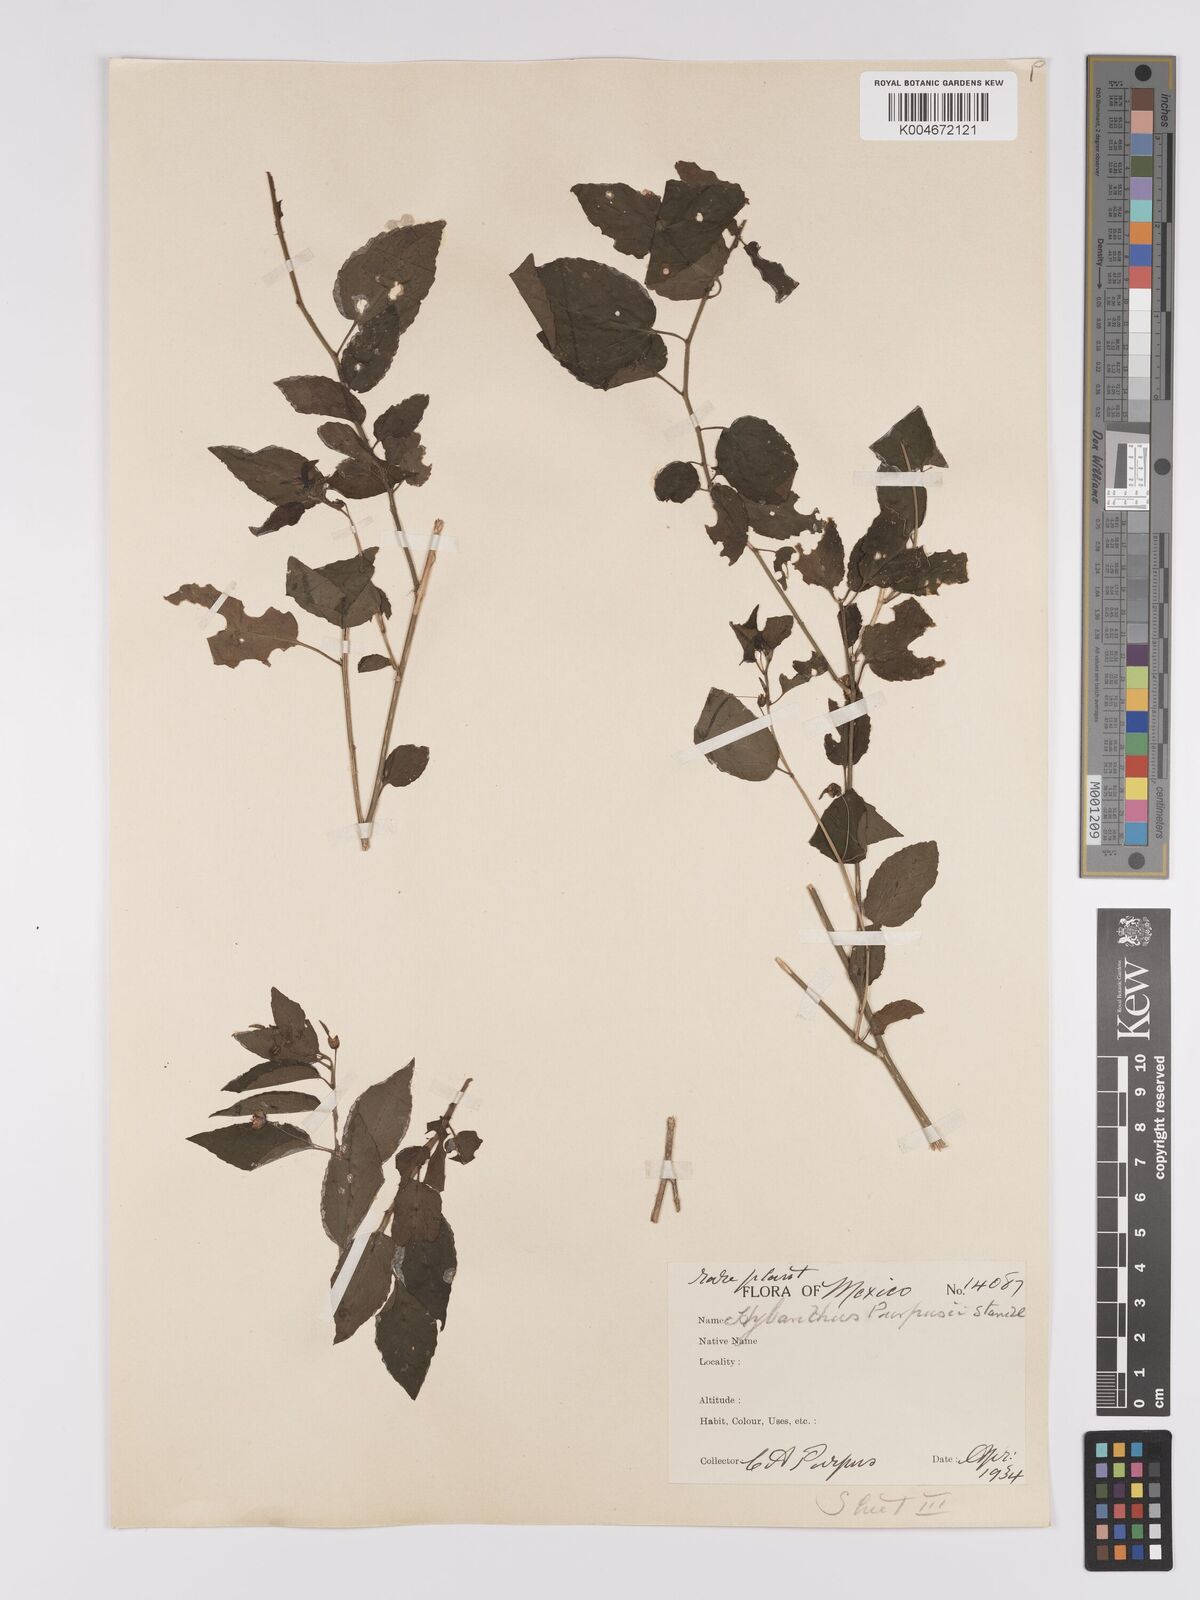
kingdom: Plantae
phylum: Tracheophyta
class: Magnoliopsida
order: Malpighiales
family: Violaceae
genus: Hybanthus
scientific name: Hybanthus galeottii
